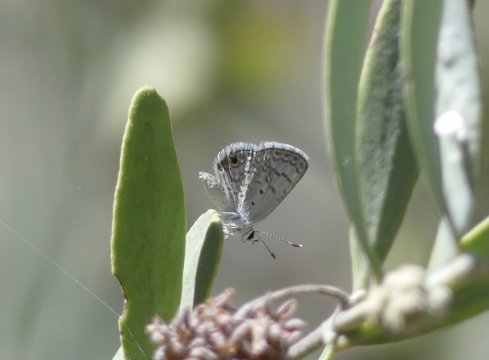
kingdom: Animalia
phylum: Arthropoda
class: Insecta
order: Lepidoptera
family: Lycaenidae
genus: Hemiargus
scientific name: Hemiargus ceraunus
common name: Ceraunus Blue
